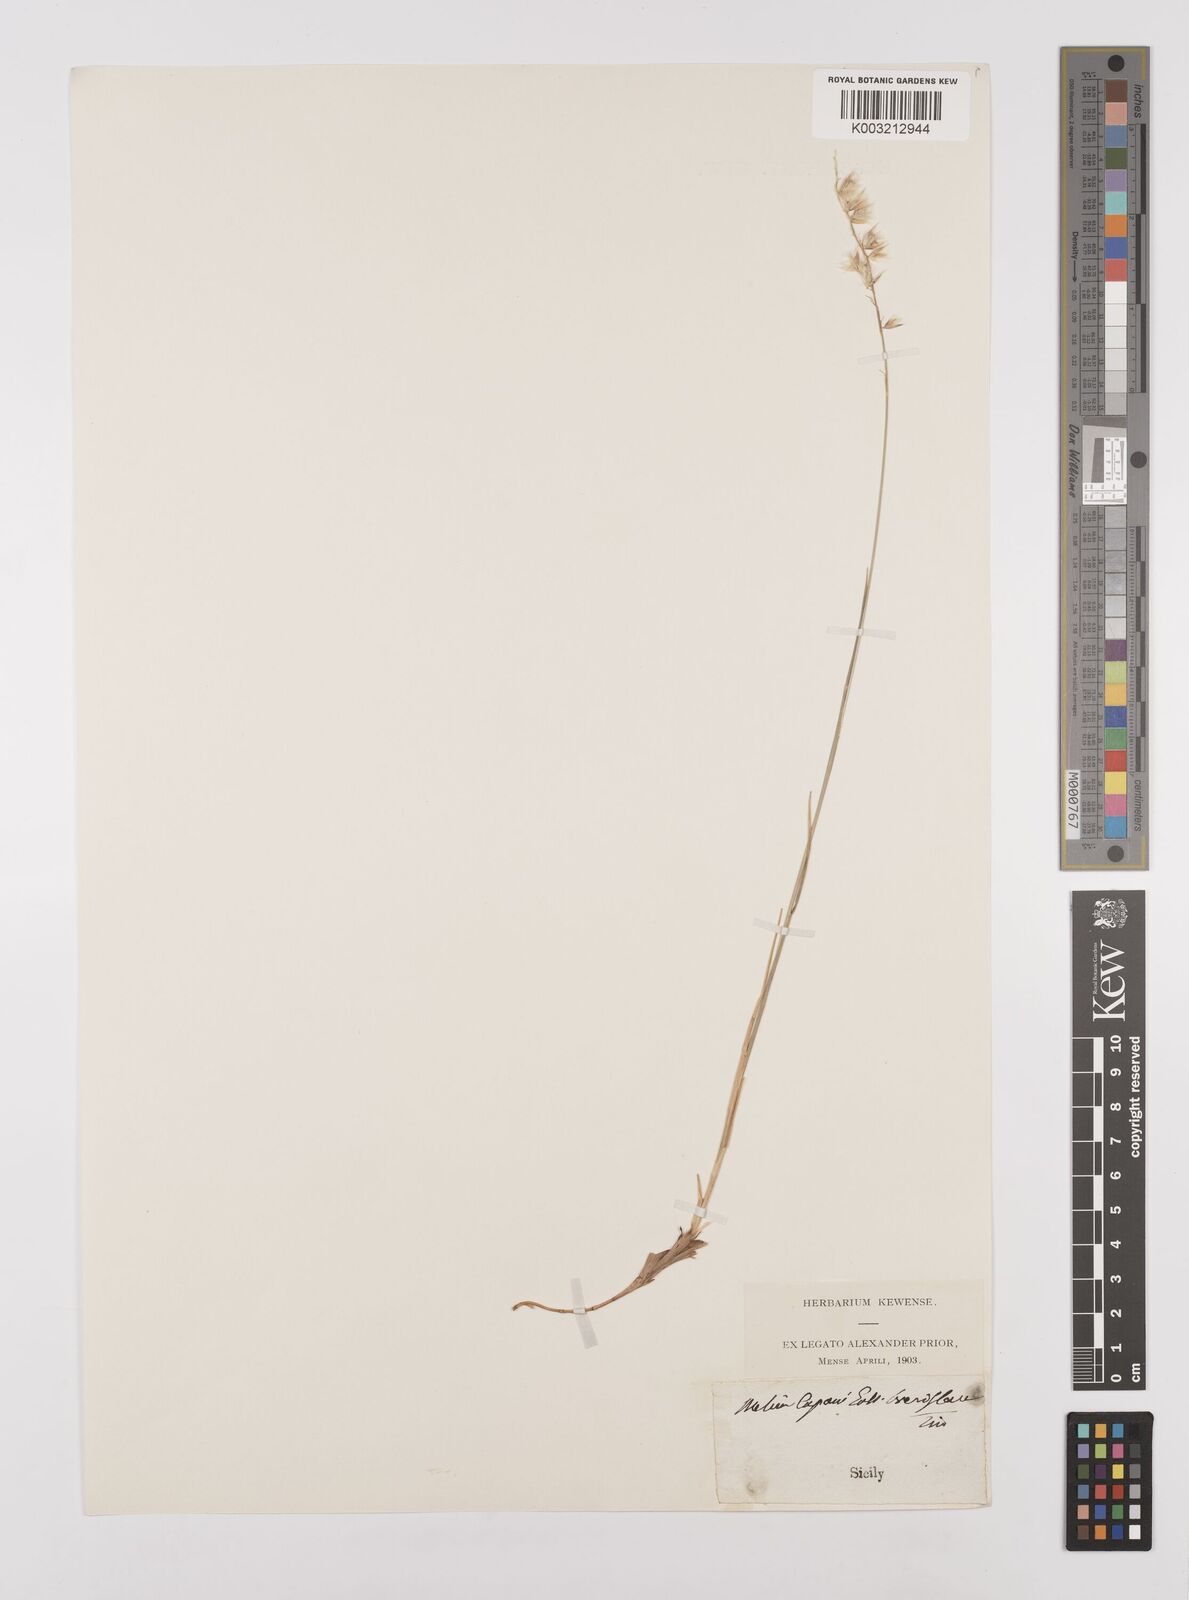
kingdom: Plantae
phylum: Tracheophyta
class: Liliopsida
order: Poales
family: Poaceae
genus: Melica
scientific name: Melica cupani
